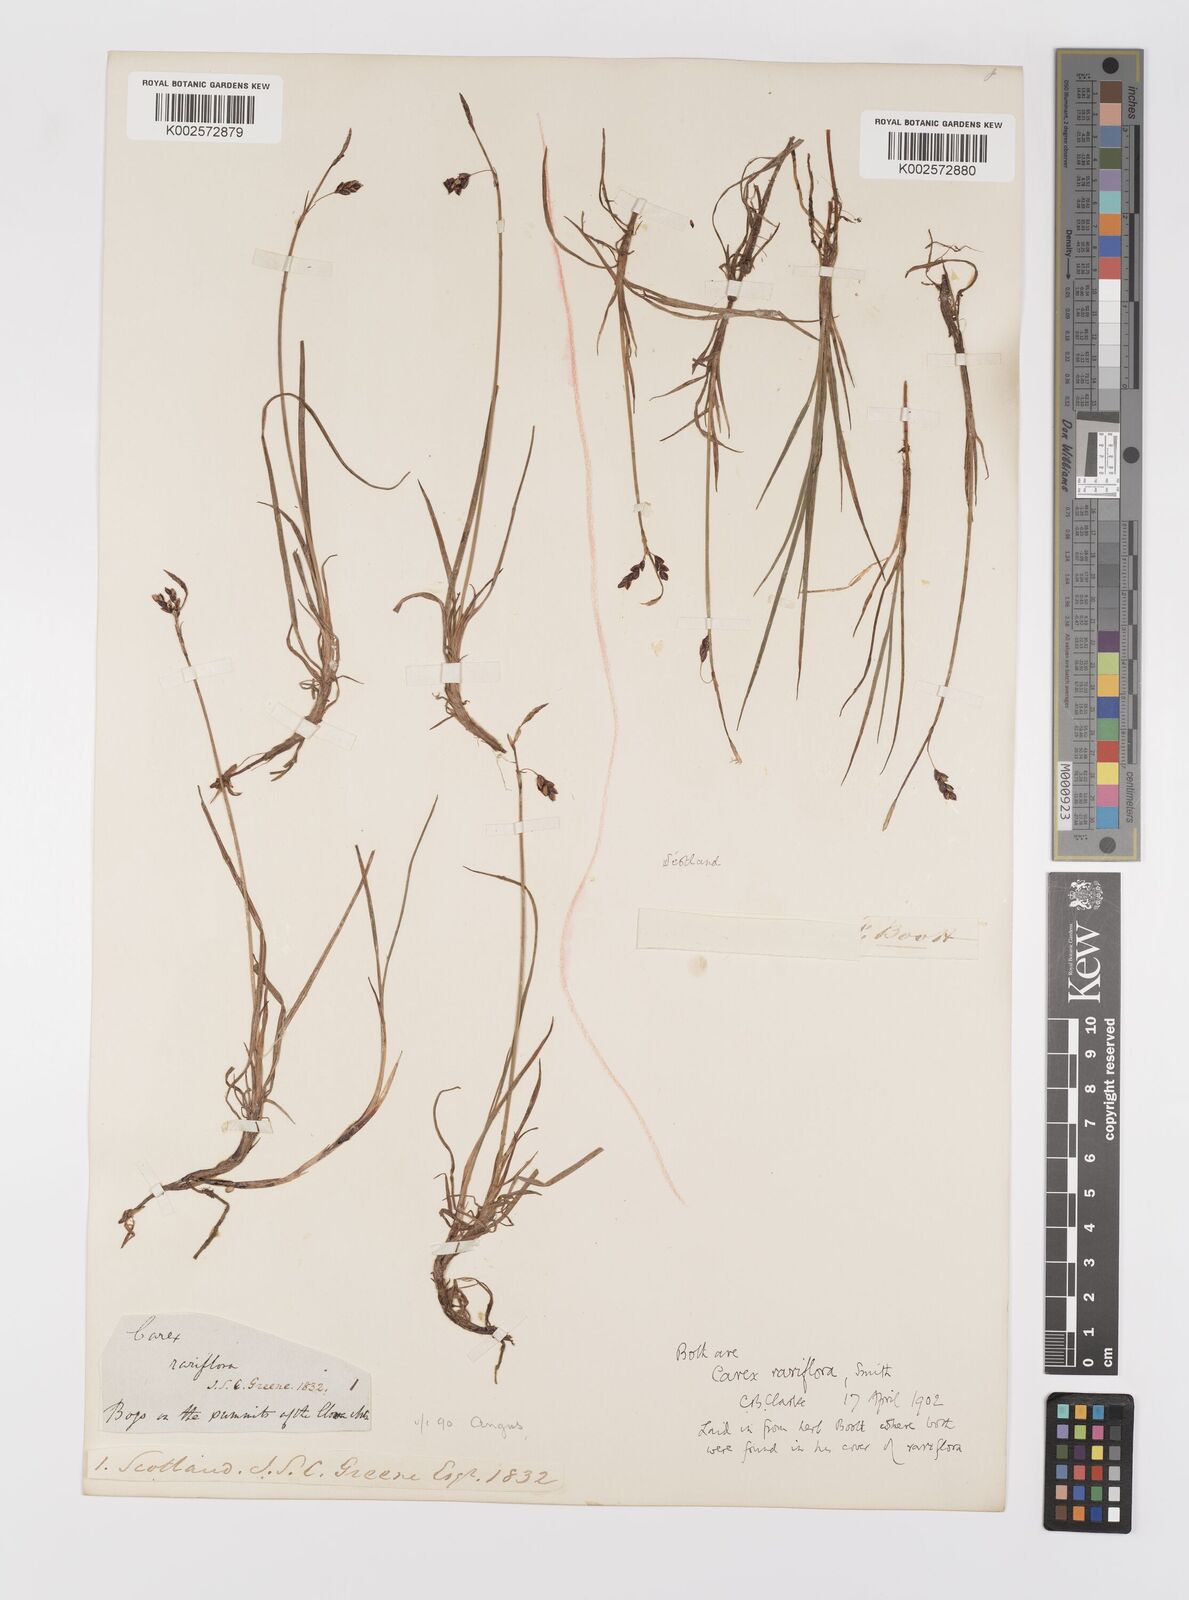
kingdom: Plantae
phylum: Tracheophyta
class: Liliopsida
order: Poales
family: Cyperaceae
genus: Carex
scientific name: Carex rariflora
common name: Loose-flowered alpine sedge
